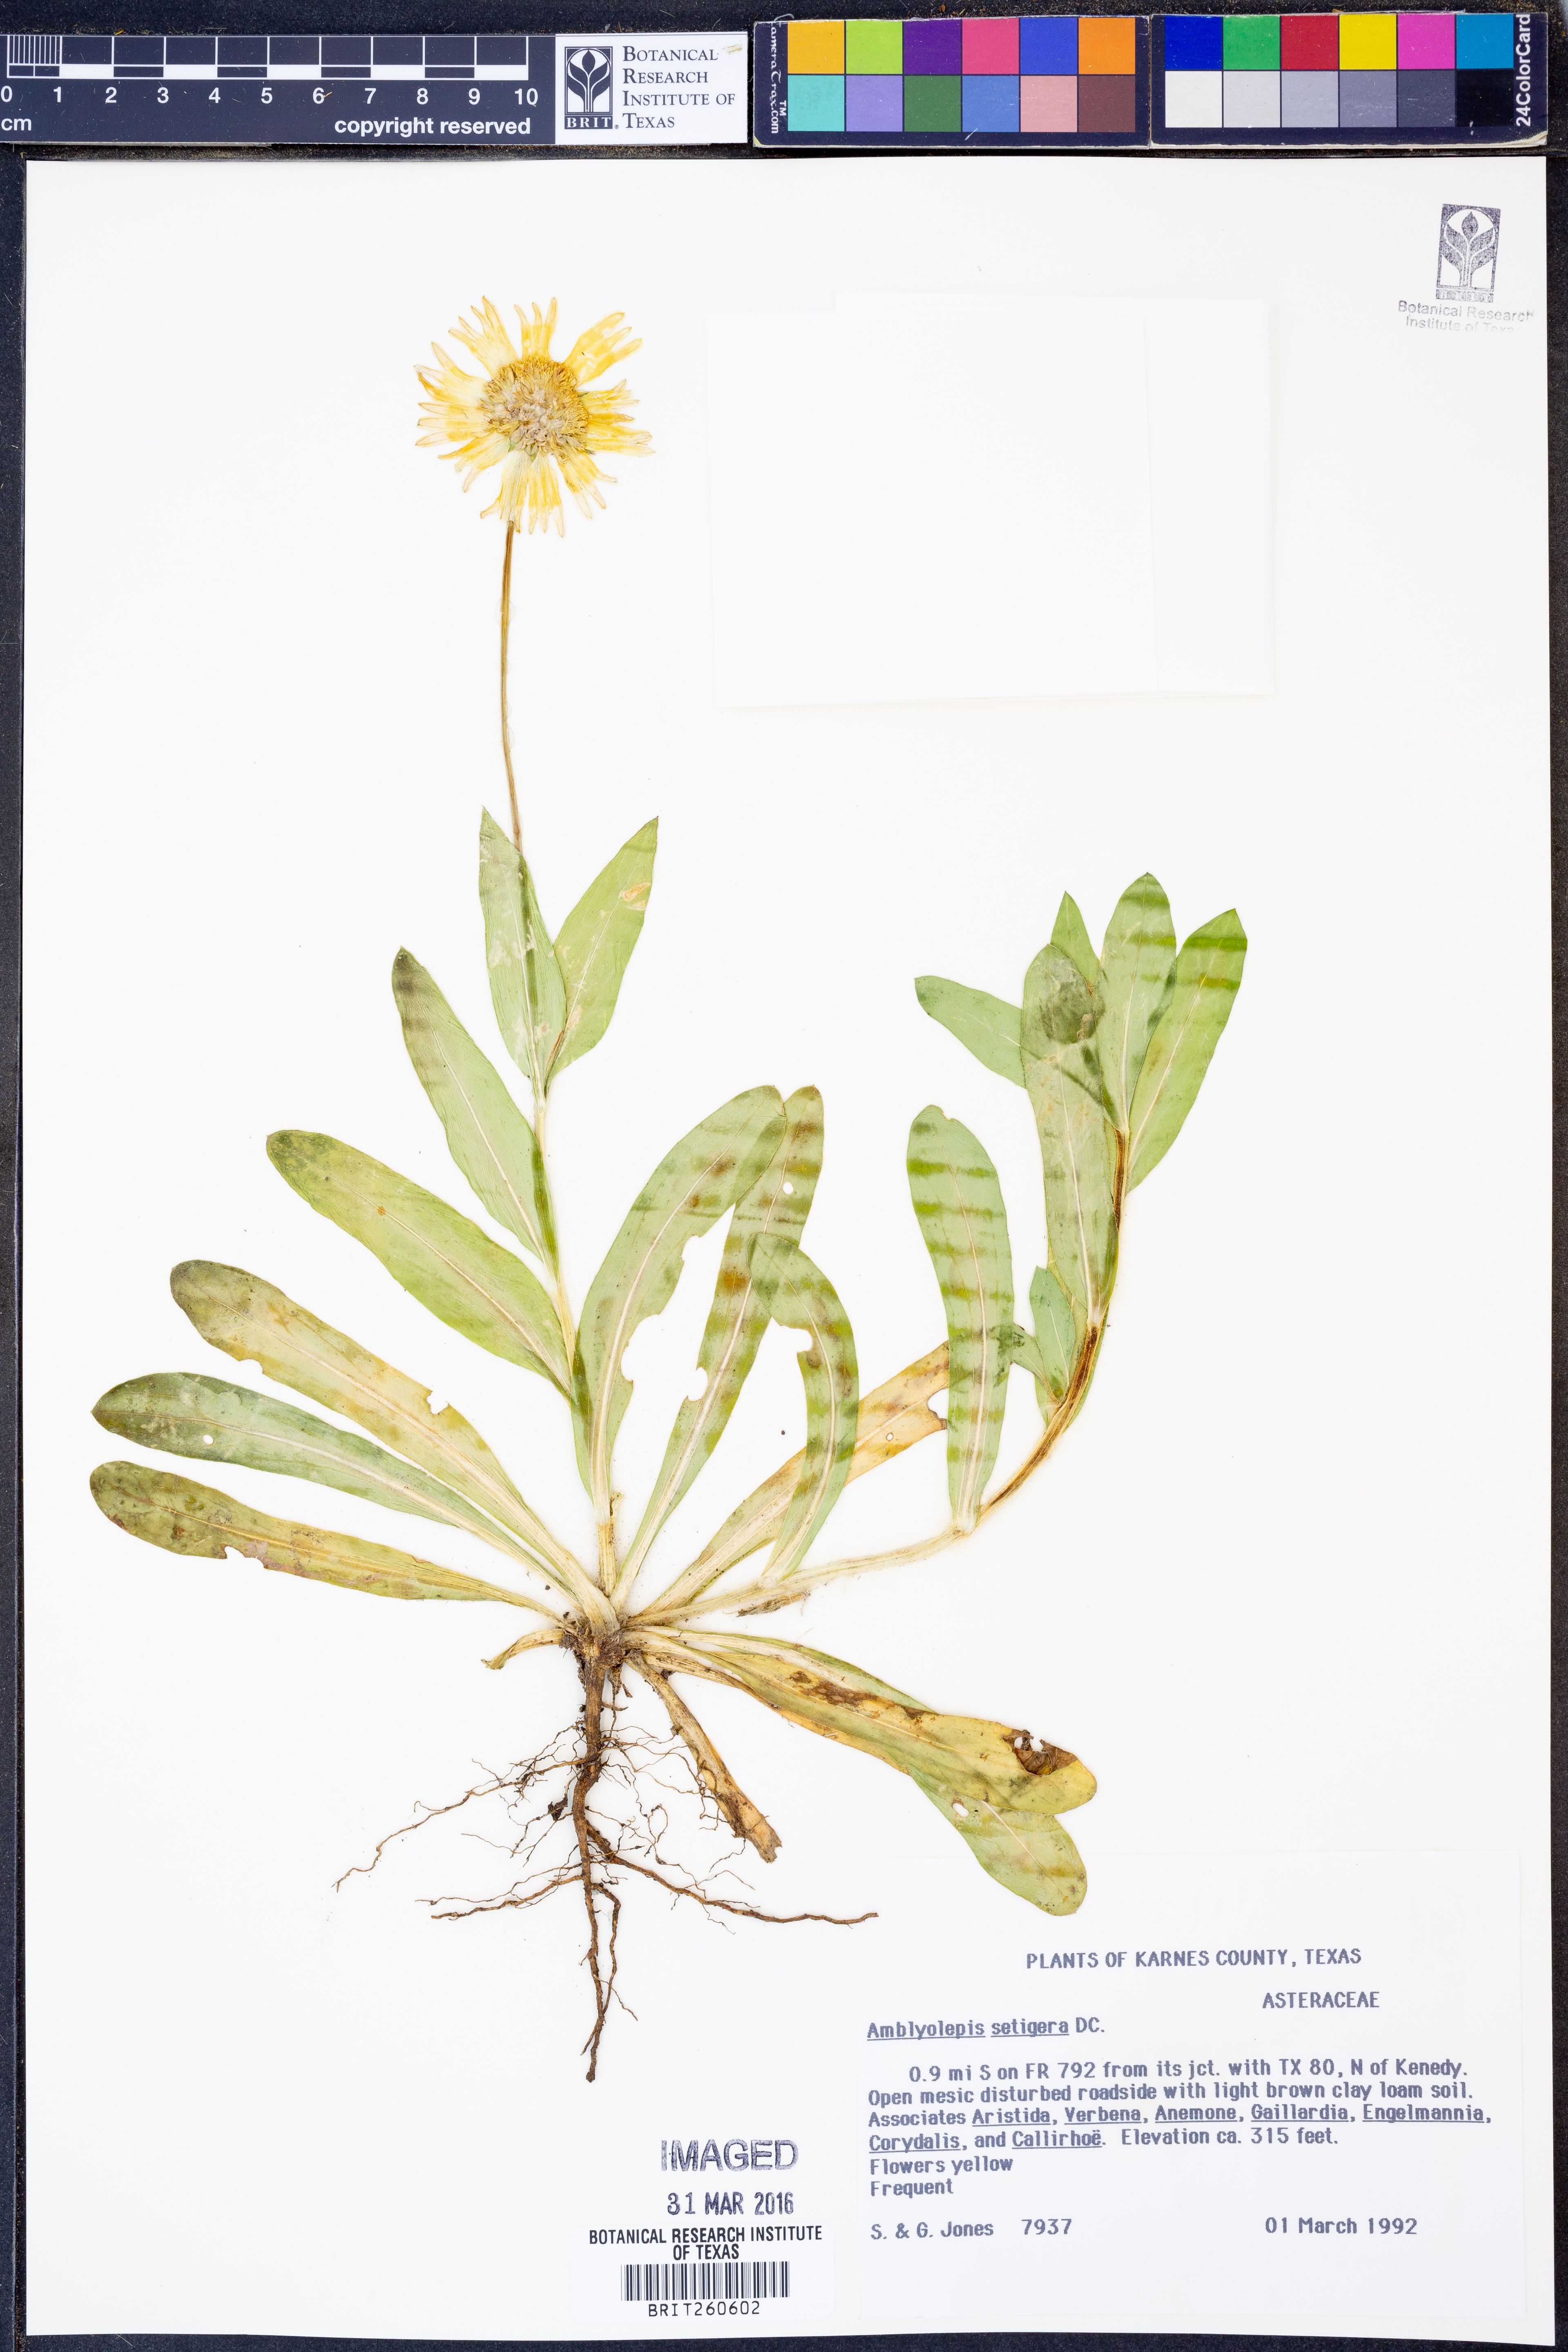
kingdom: Plantae
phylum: Tracheophyta
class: Magnoliopsida
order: Asterales
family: Asteraceae
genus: Amblyolepis
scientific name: Amblyolepis setigera
